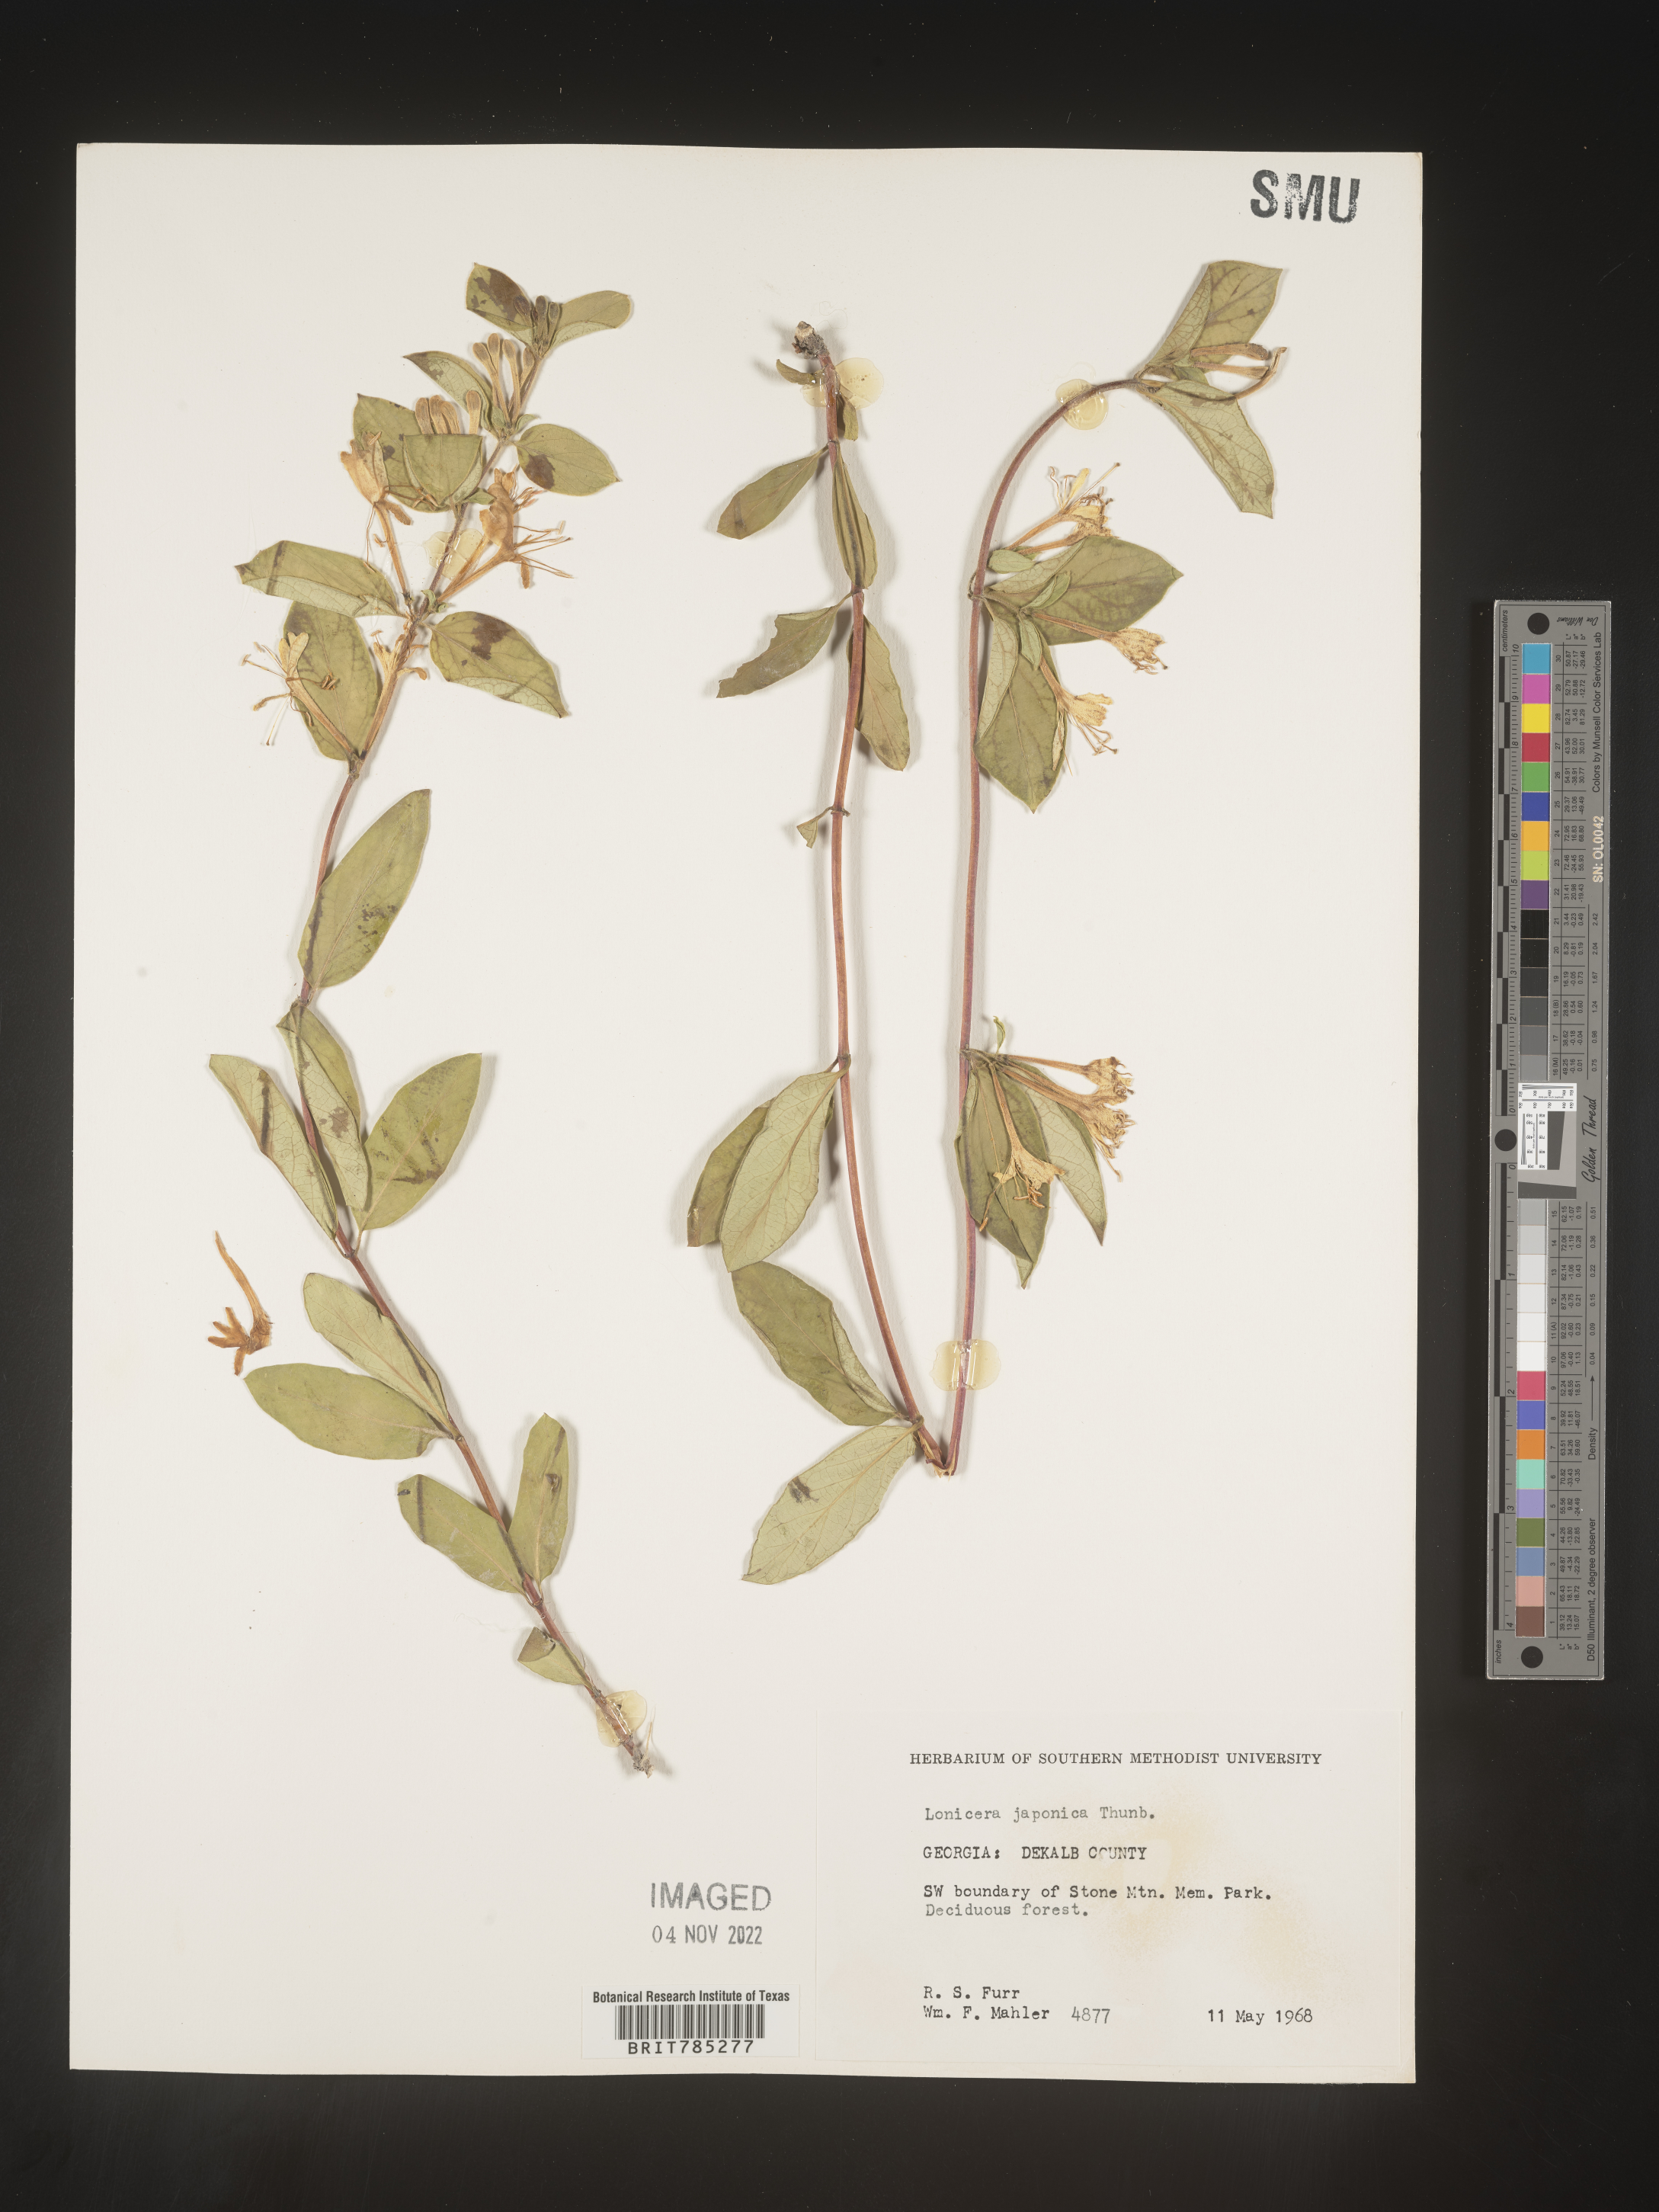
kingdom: Plantae
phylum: Tracheophyta
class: Magnoliopsida
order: Dipsacales
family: Caprifoliaceae
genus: Lonicera
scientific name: Lonicera japonica
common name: Japanese honeysuckle
